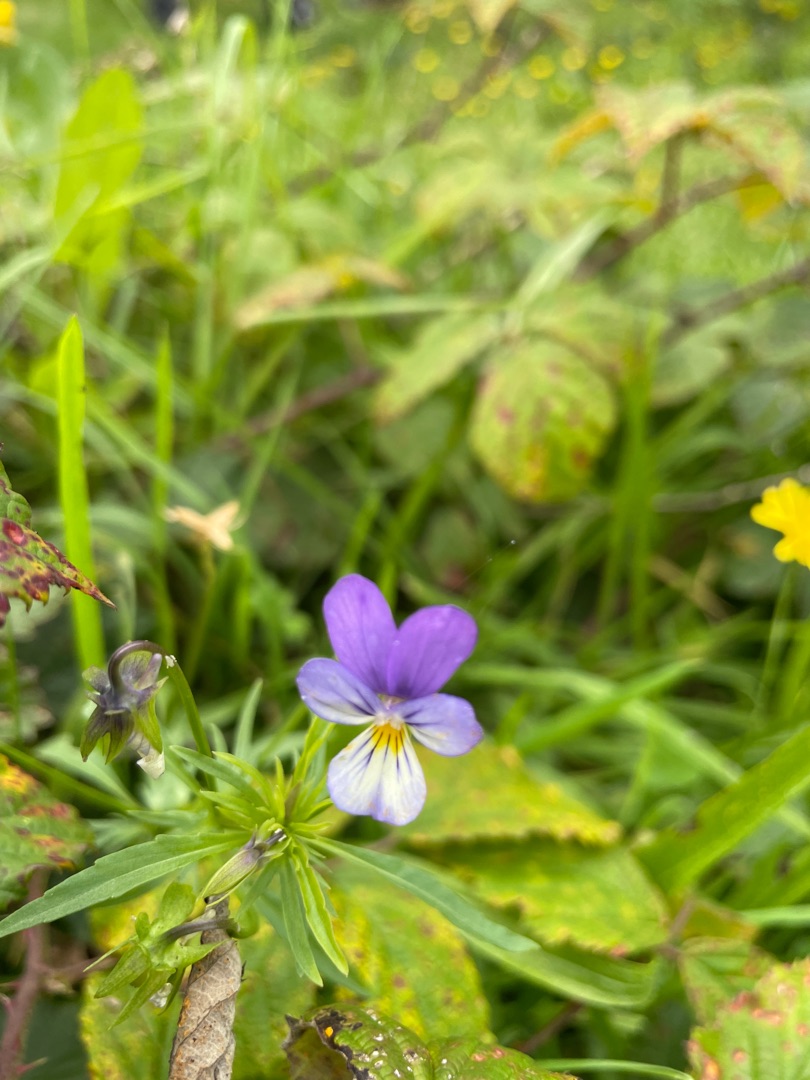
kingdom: Plantae
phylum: Tracheophyta
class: Magnoliopsida
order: Malpighiales
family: Violaceae
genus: Viola
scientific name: Viola tricolor
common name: Stedmoderblomst
